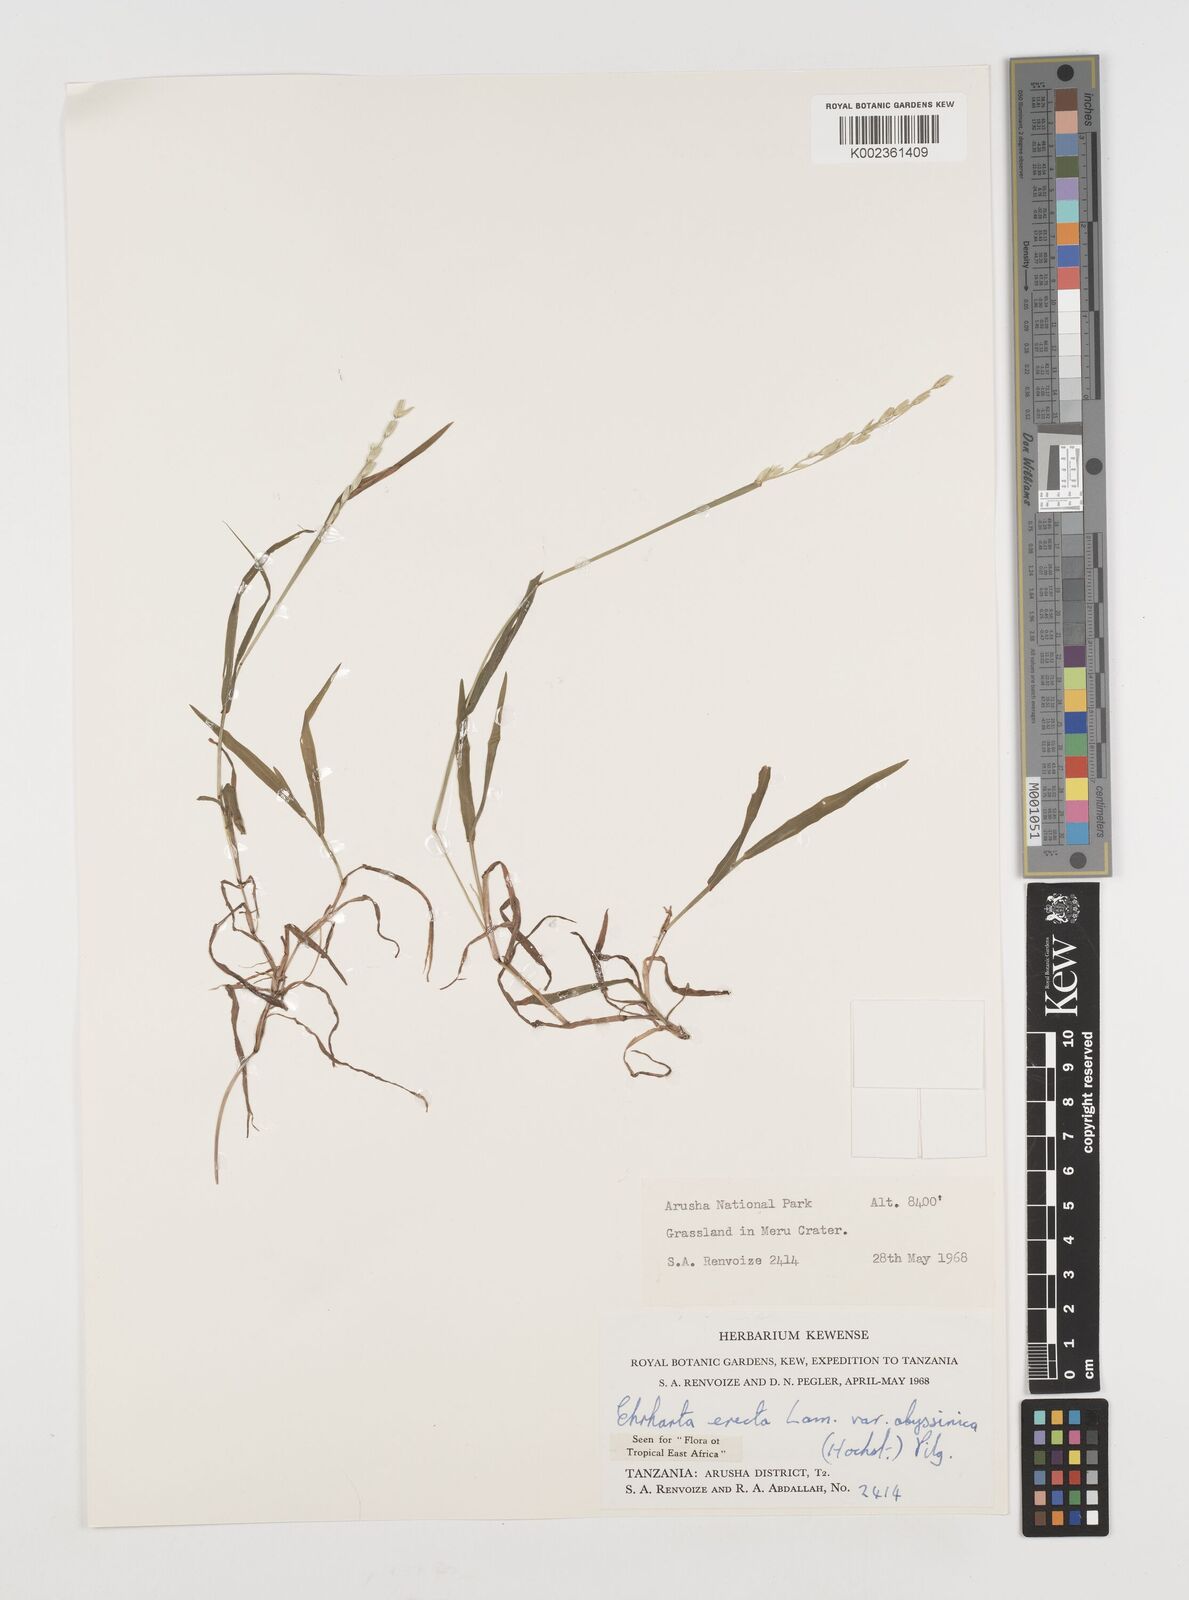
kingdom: Plantae
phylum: Tracheophyta
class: Liliopsida
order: Poales
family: Poaceae
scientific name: Poaceae
